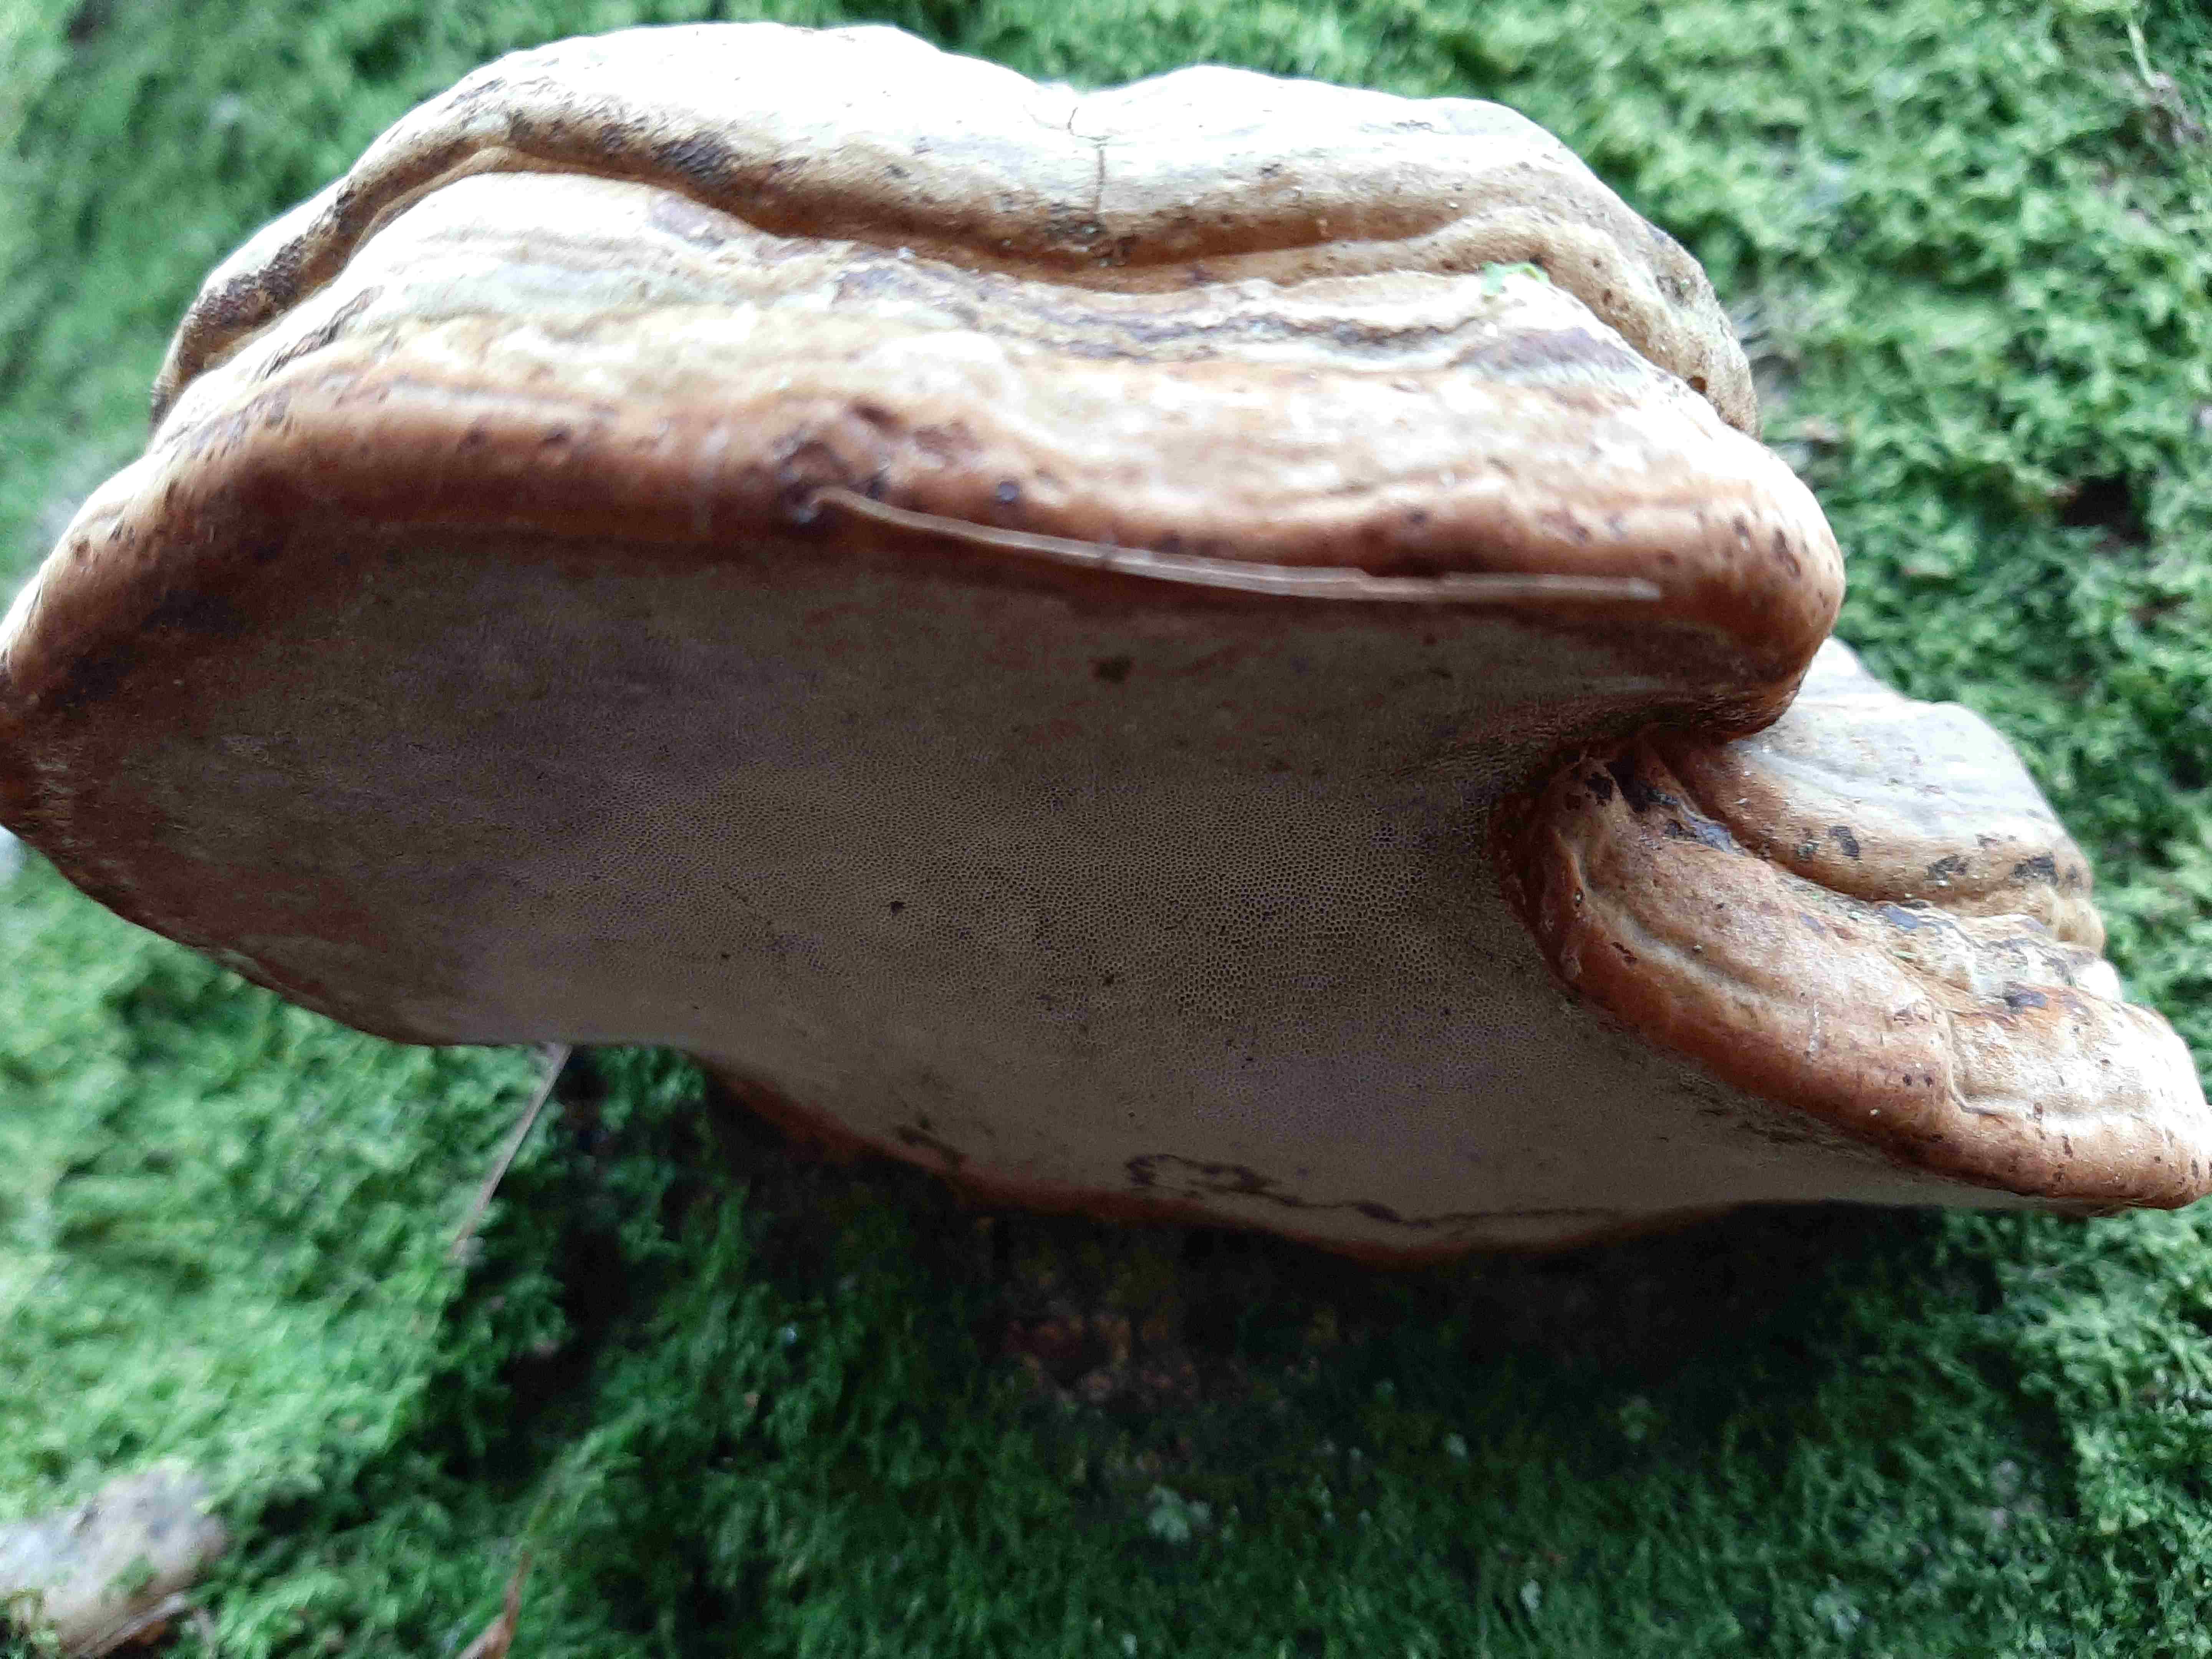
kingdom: Fungi
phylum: Basidiomycota
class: Agaricomycetes
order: Polyporales
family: Polyporaceae
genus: Fomes
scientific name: Fomes fomentarius
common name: tøndersvamp
